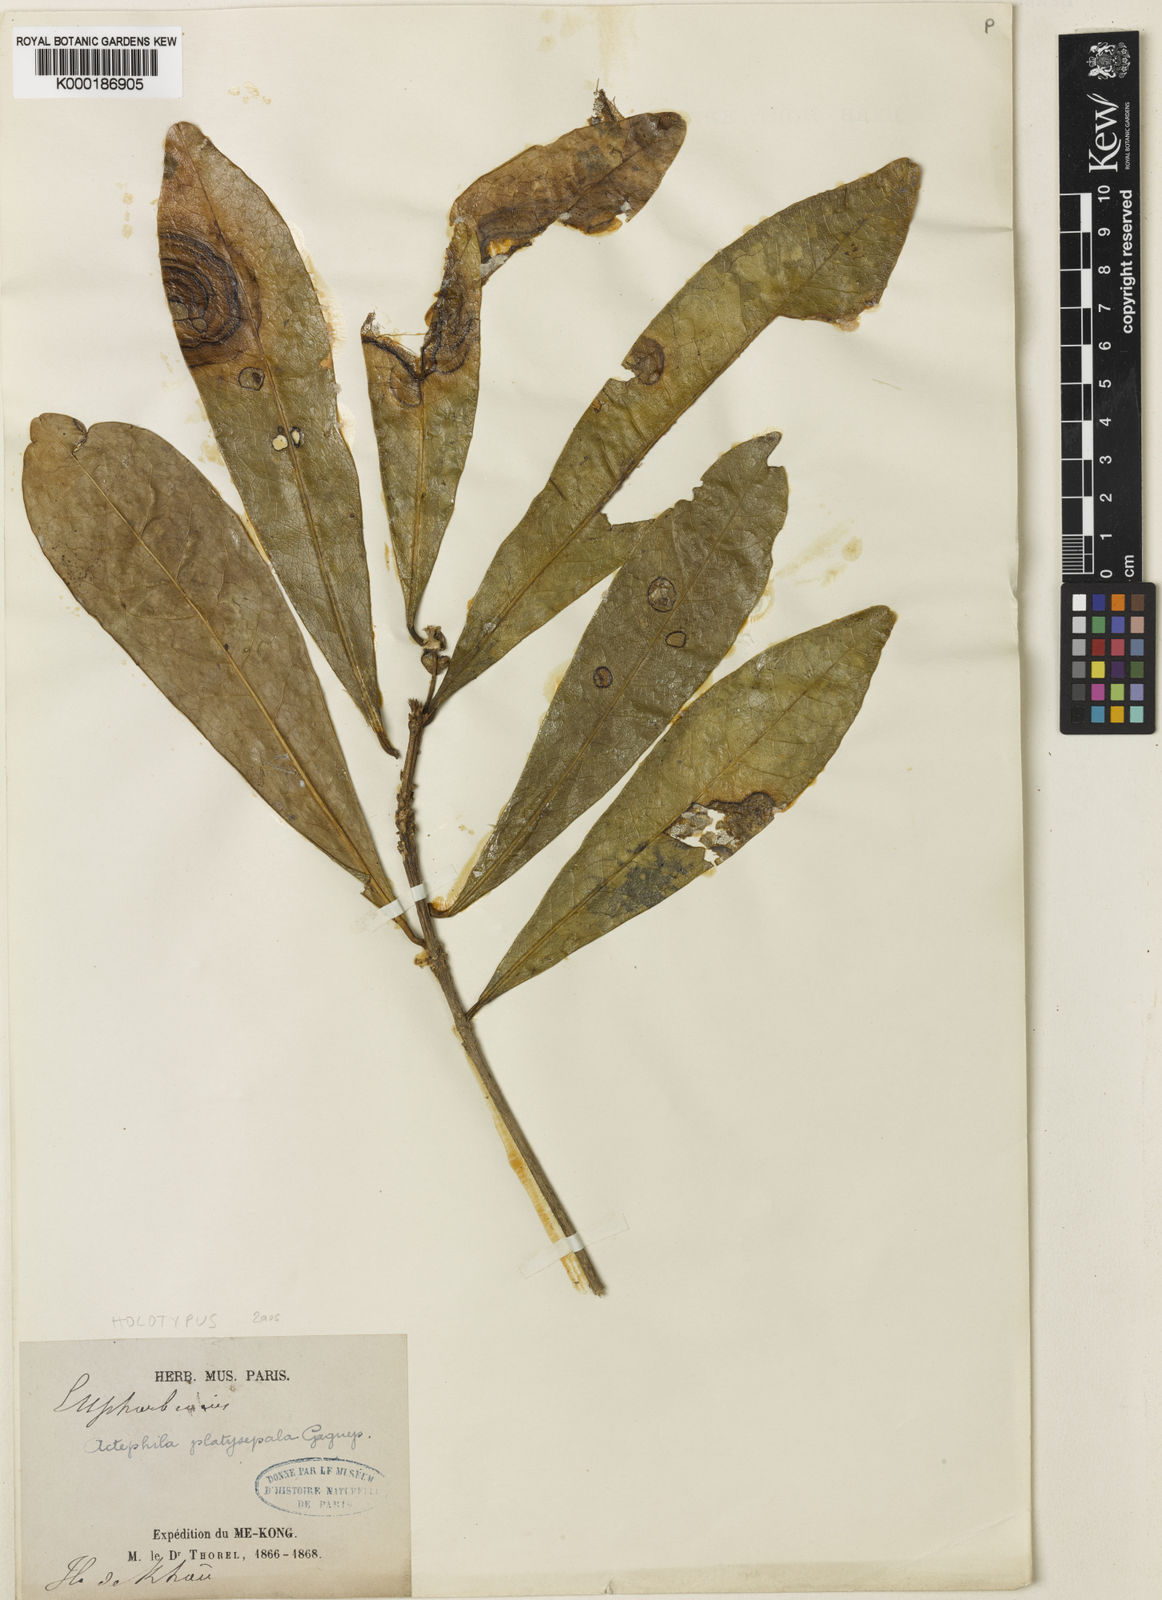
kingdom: Plantae
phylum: Tracheophyta
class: Magnoliopsida
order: Malpighiales
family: Phyllanthaceae
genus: Actephila
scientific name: Actephila platysepala
